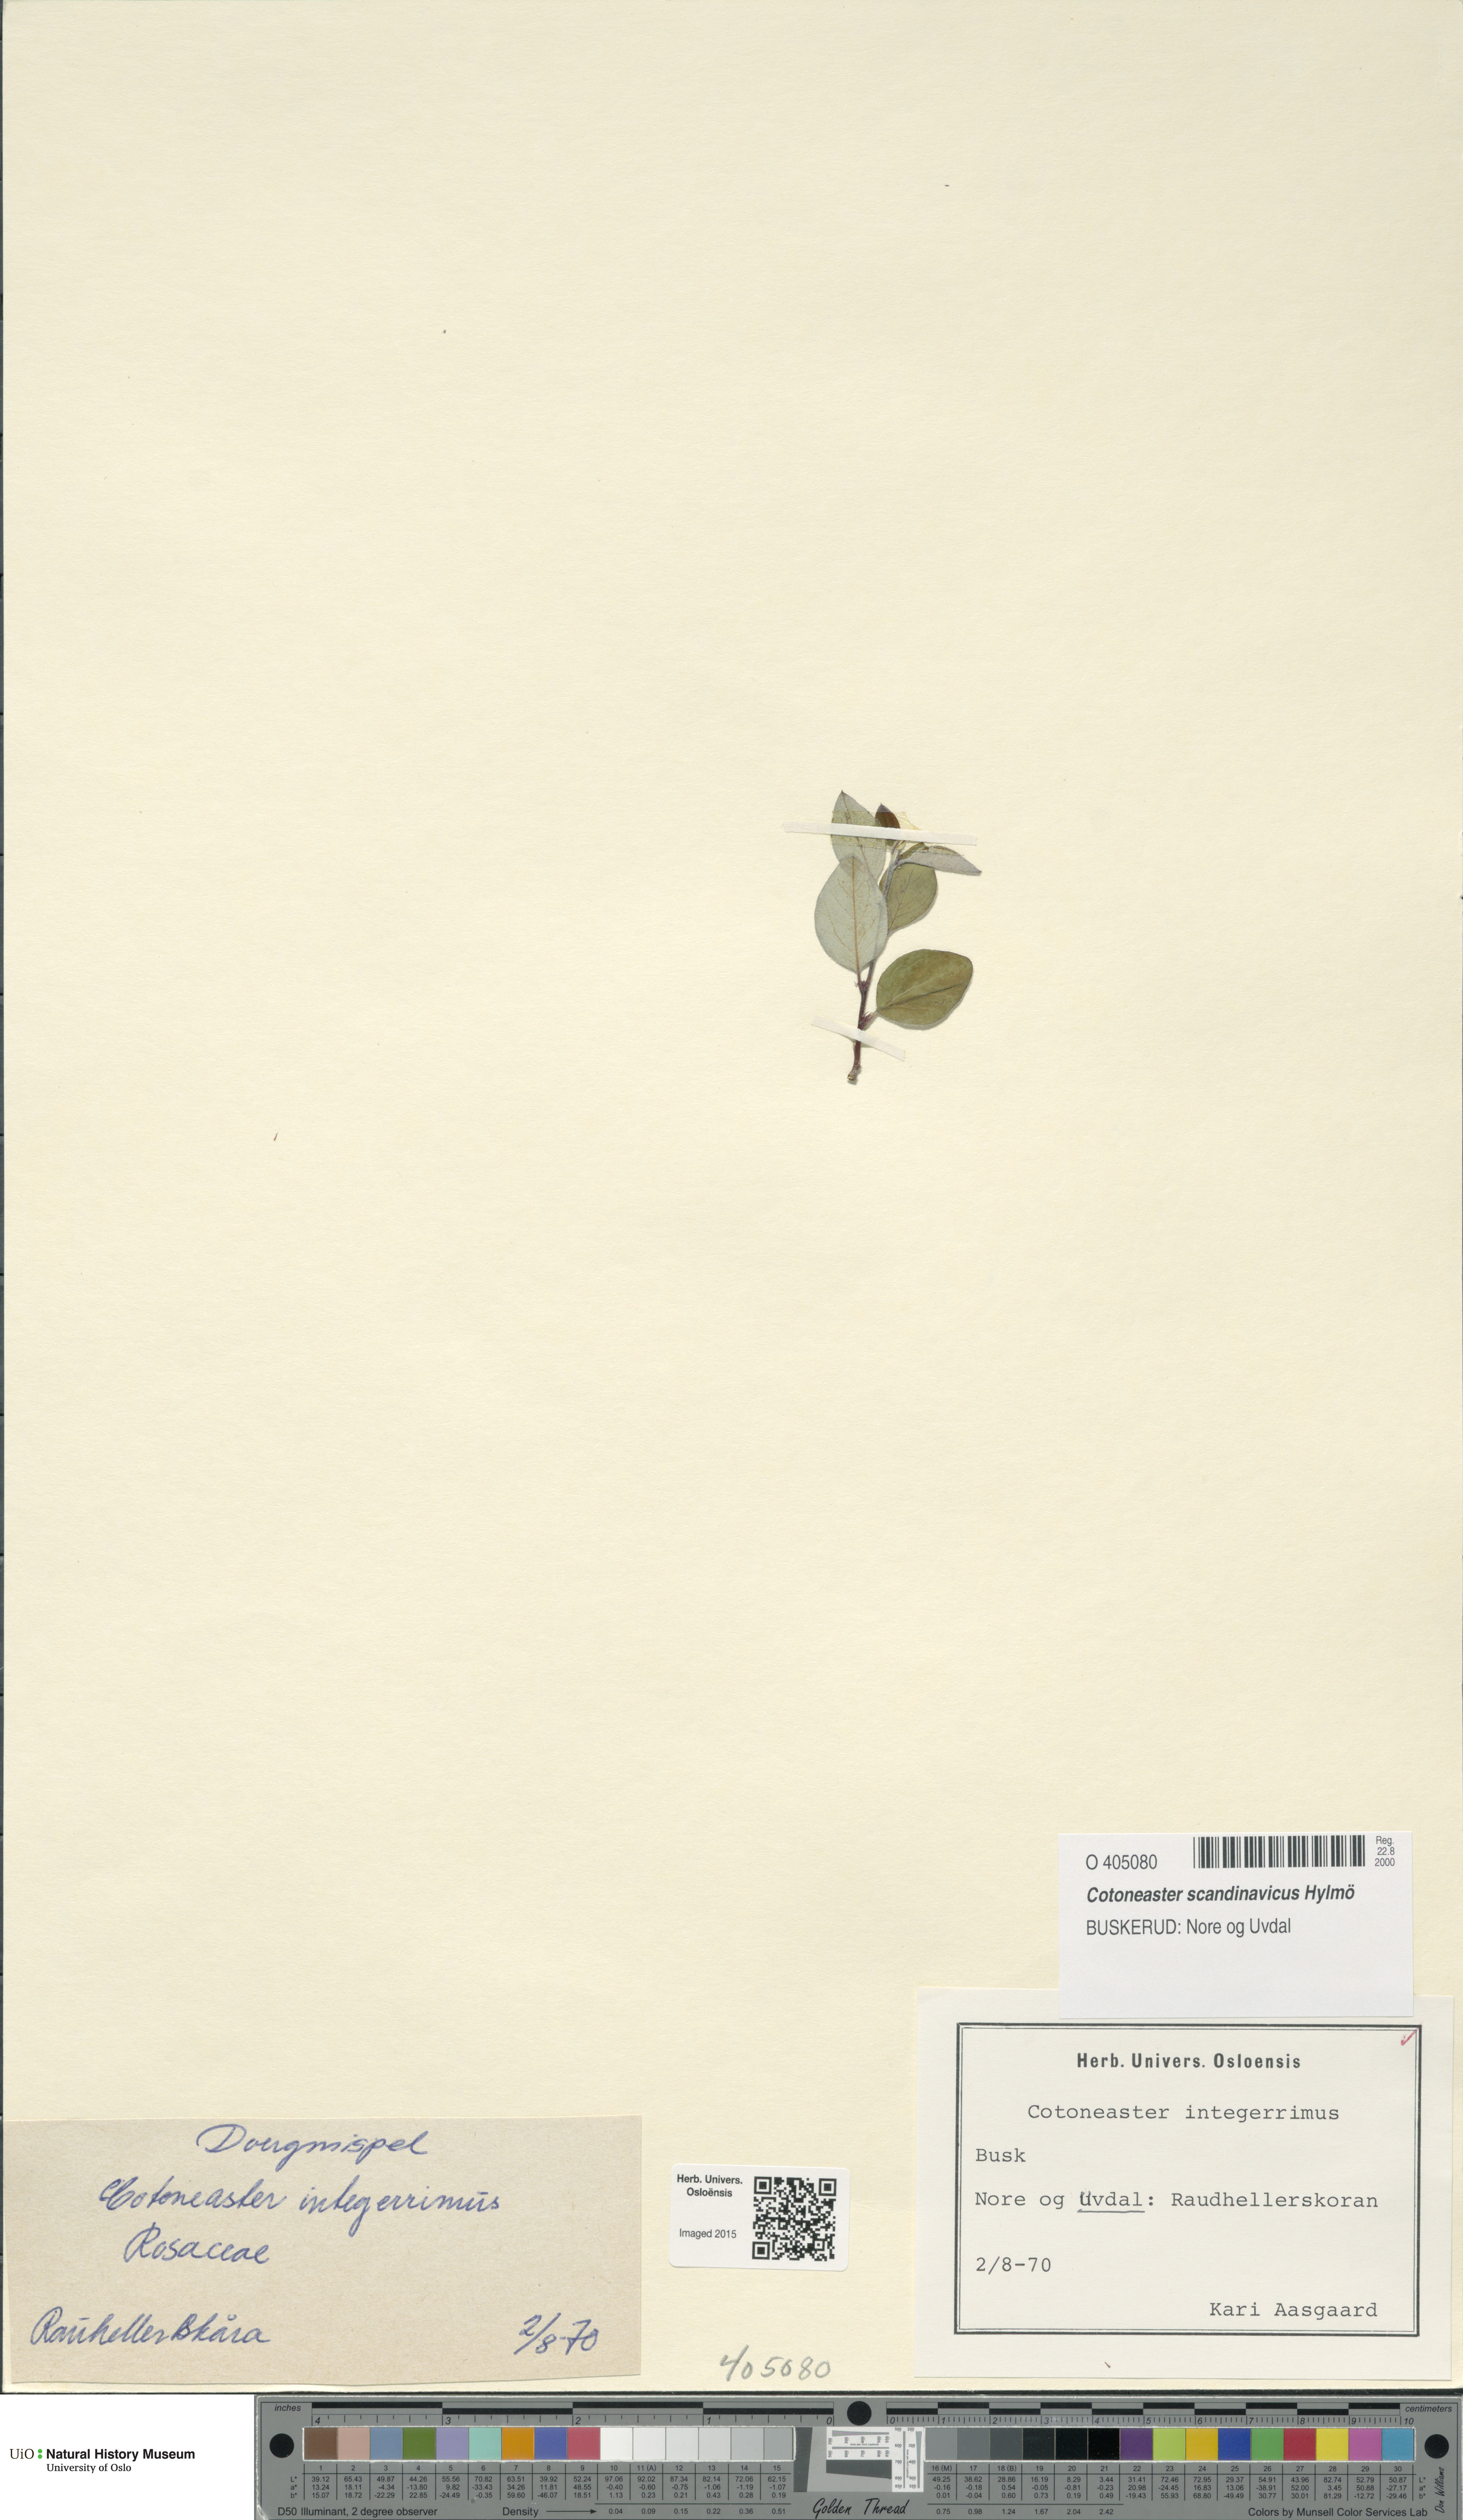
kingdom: Plantae
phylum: Tracheophyta
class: Magnoliopsida
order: Rosales
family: Rosaceae
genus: Cotoneaster
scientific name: Cotoneaster integerrimus
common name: Wild cotoneaster
